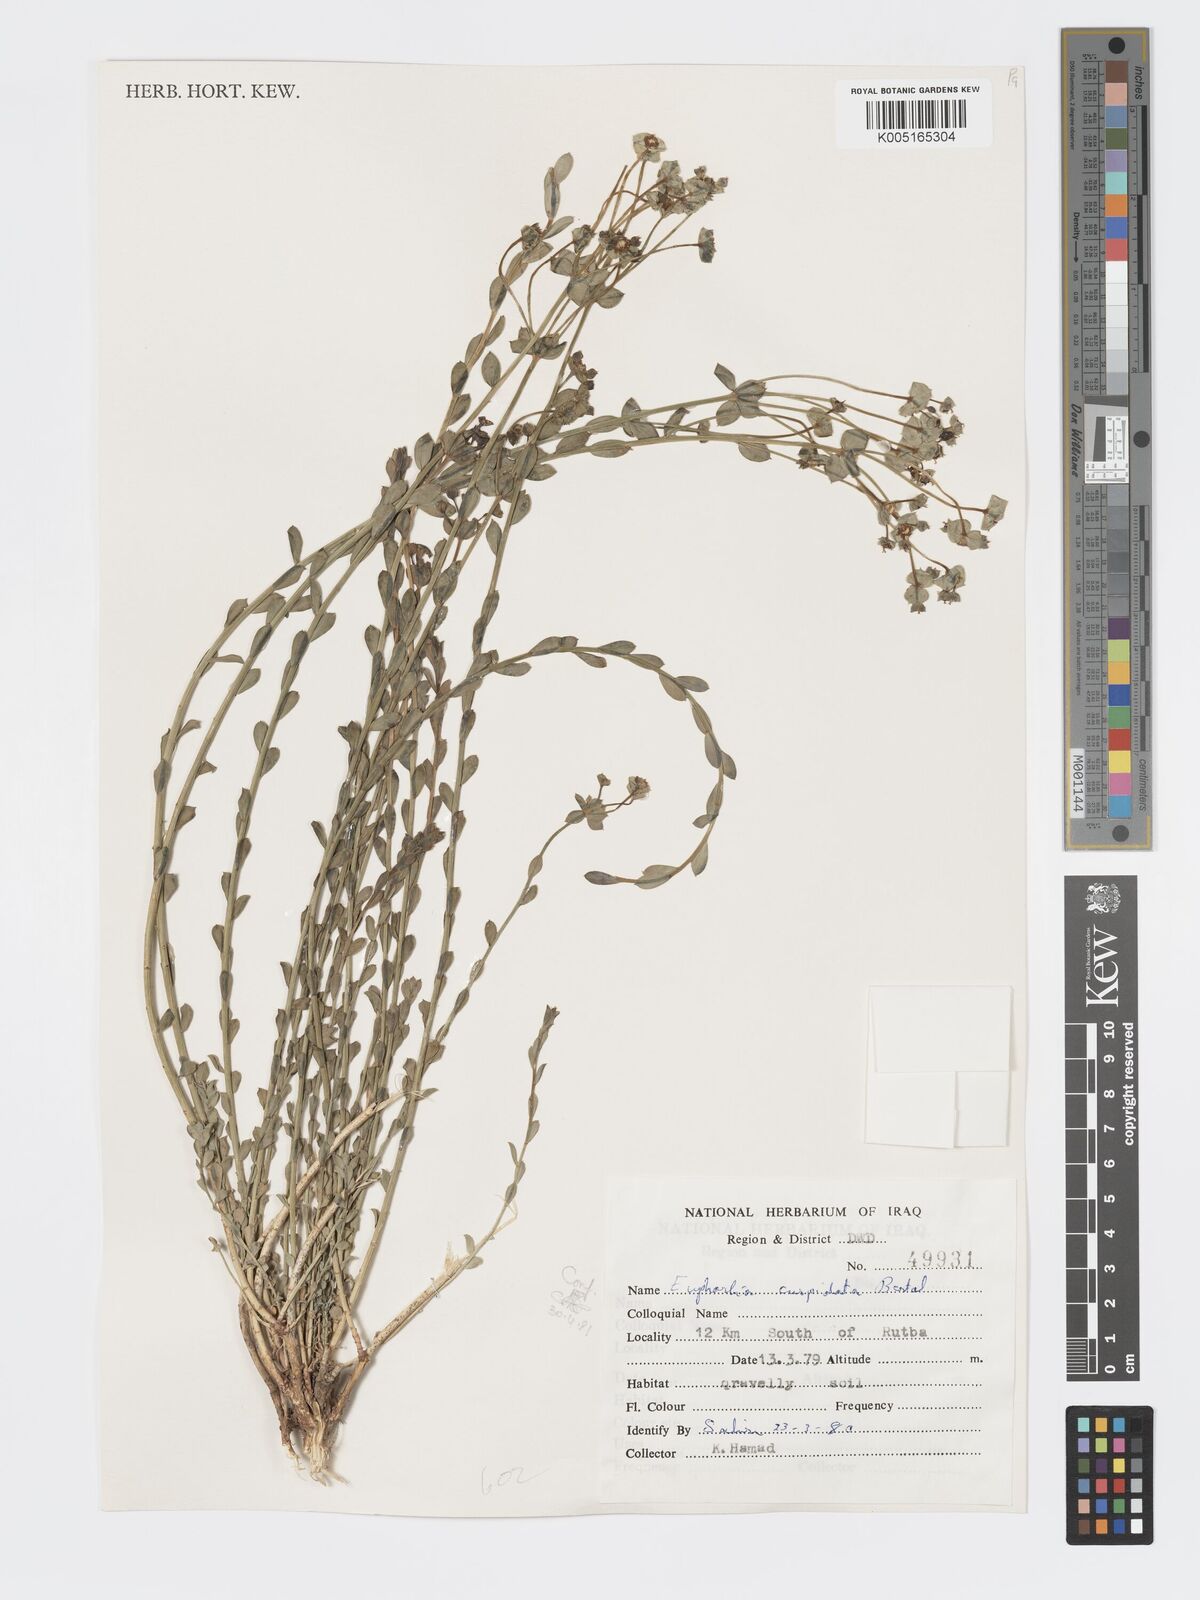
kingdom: Plantae
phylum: Tracheophyta
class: Magnoliopsida
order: Malpighiales
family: Euphorbiaceae
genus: Euphorbia
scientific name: Euphorbia cuspidata
